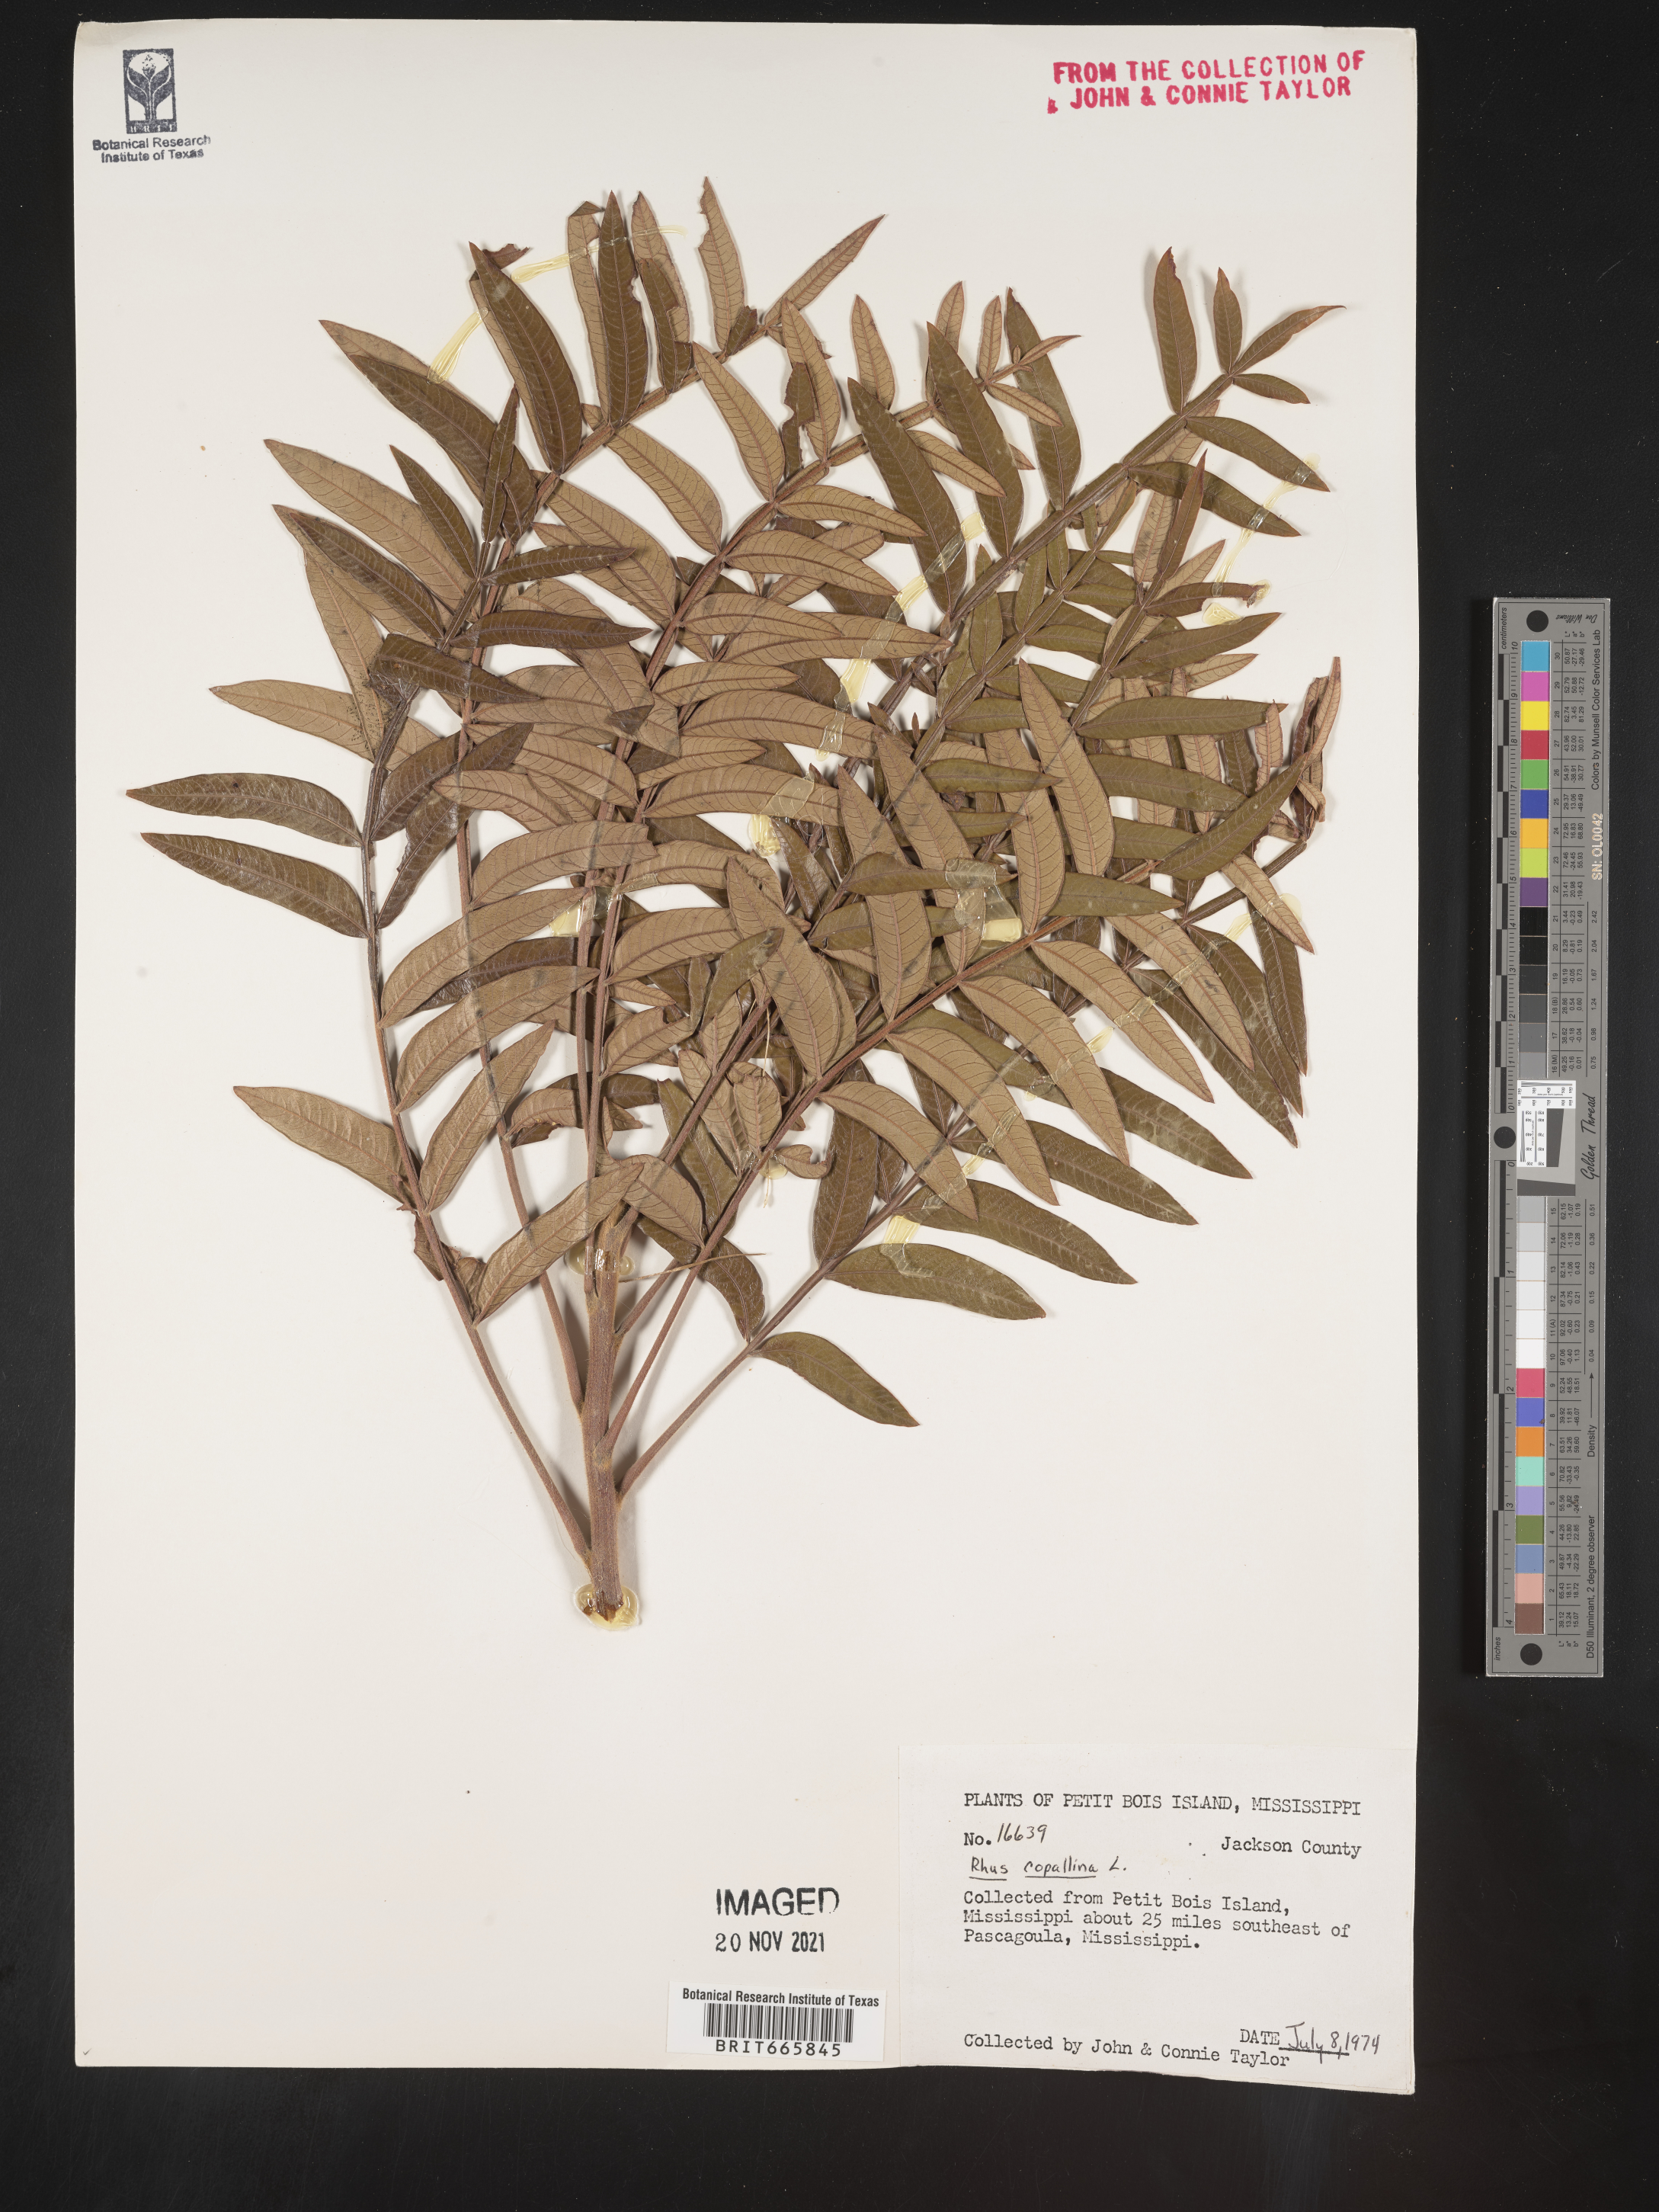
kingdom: Plantae
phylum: Tracheophyta
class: Magnoliopsida
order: Sapindales
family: Anacardiaceae
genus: Rhus
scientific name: Rhus copallina
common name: Shining sumac
